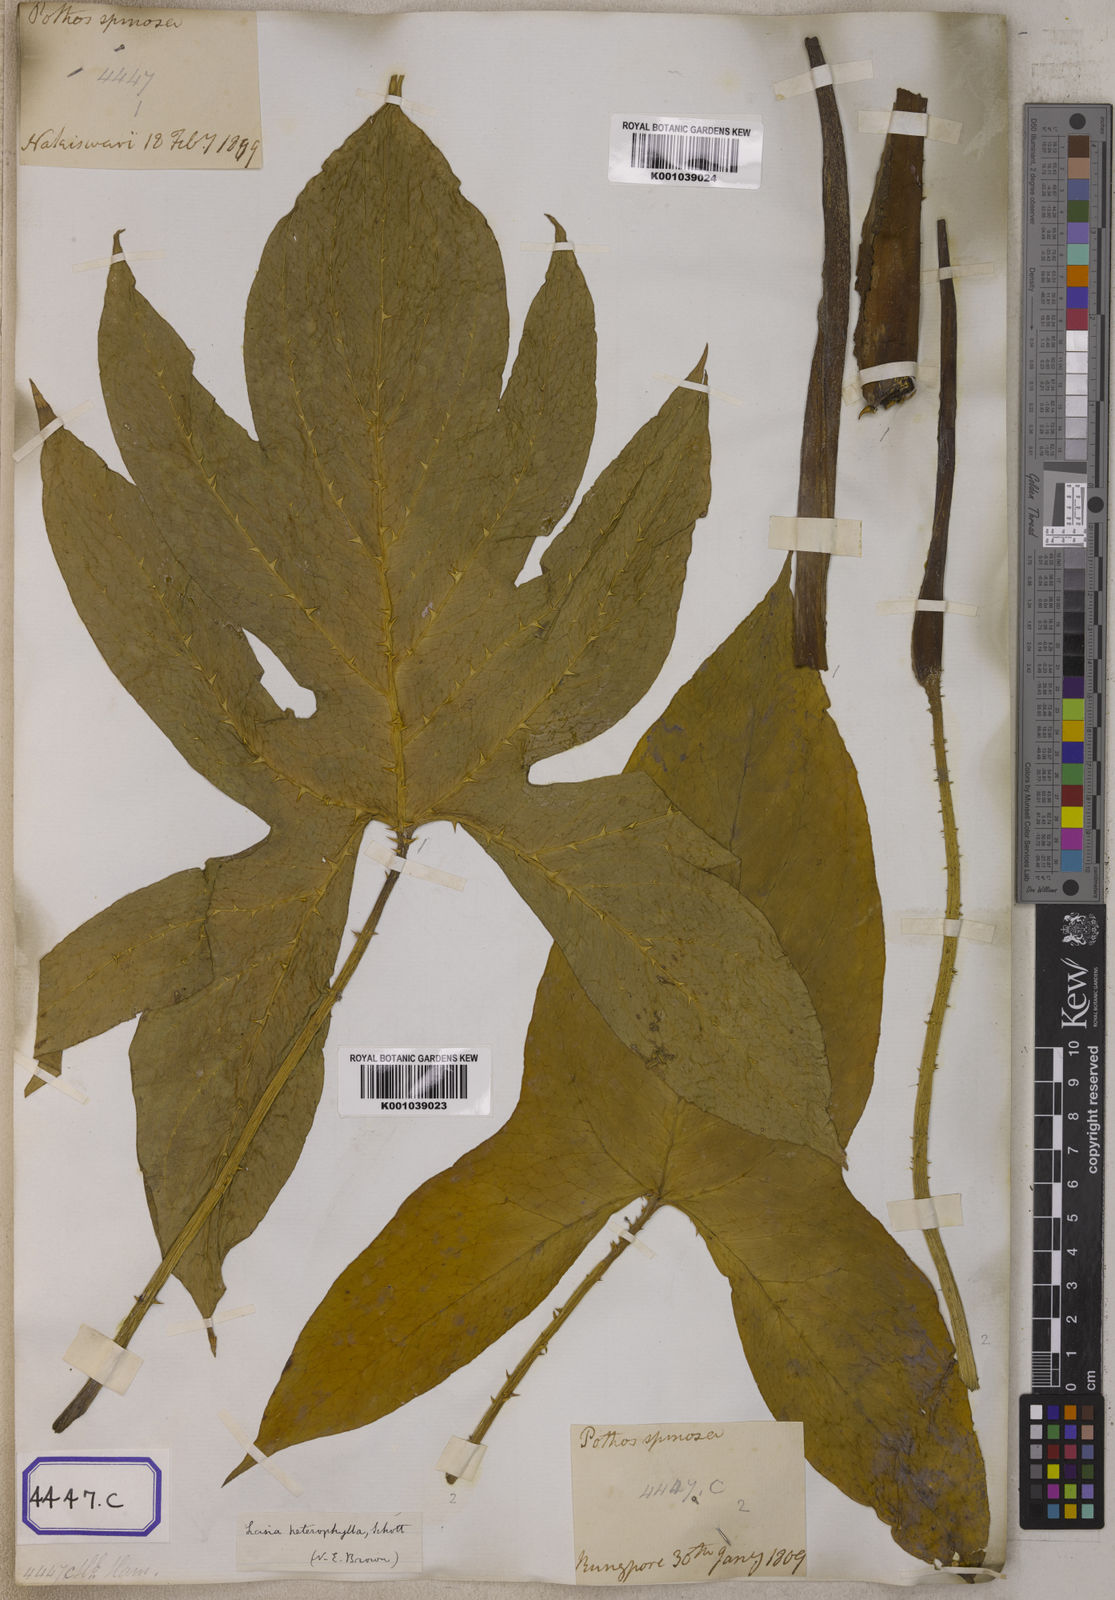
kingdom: Plantae
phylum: Tracheophyta
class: Liliopsida
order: Alismatales
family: Araceae
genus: Lasia
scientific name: Lasia spinosa
